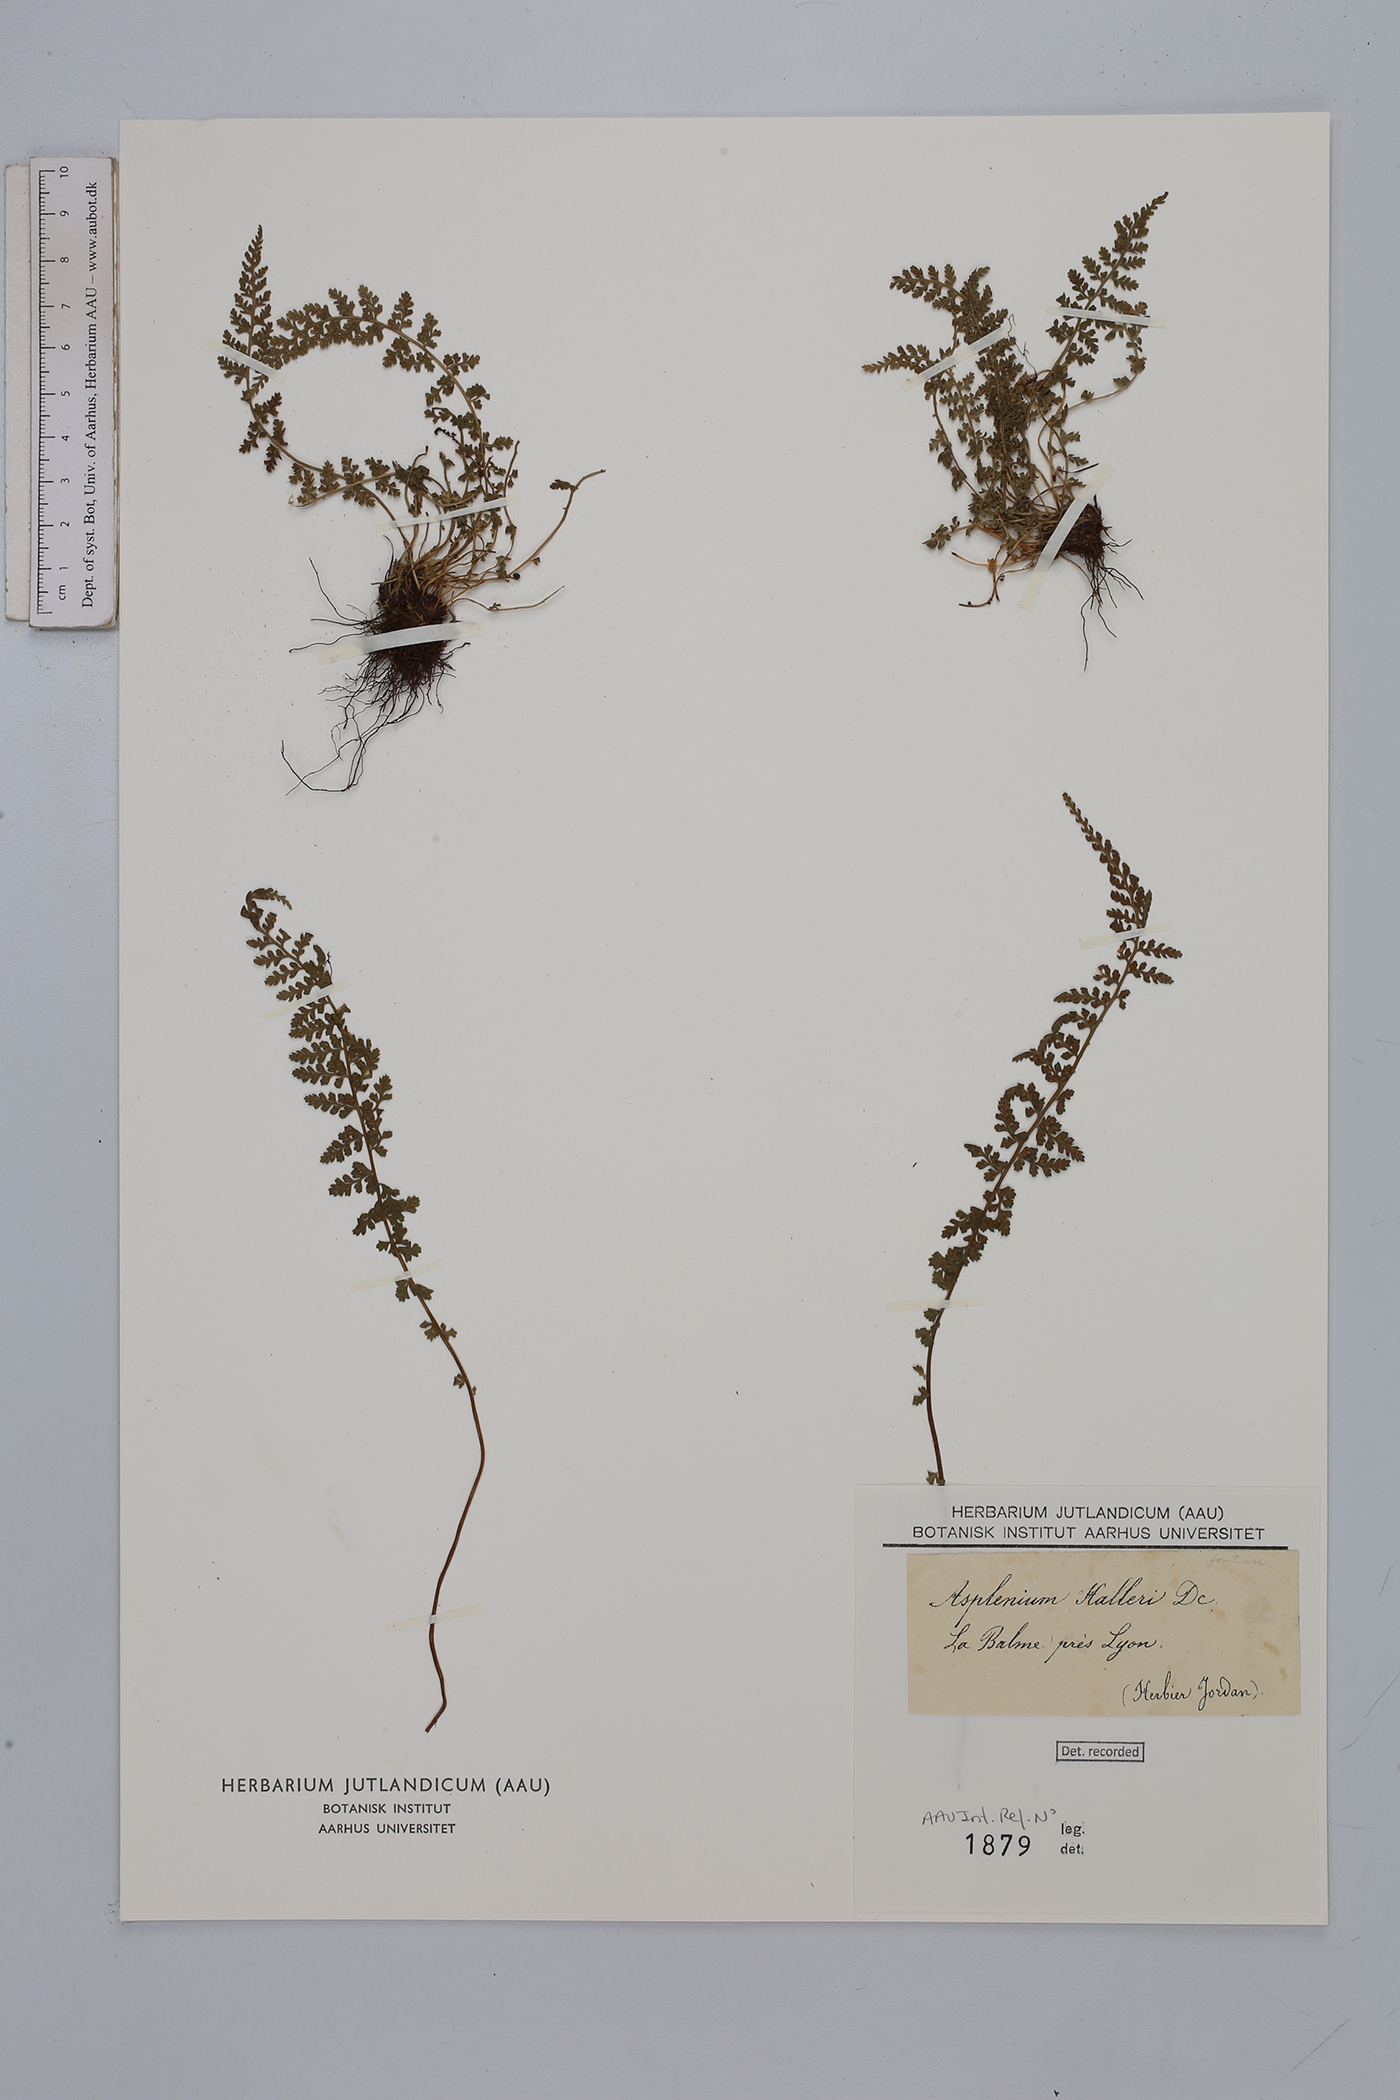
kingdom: Plantae
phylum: Tracheophyta
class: Polypodiopsida
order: Polypodiales
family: Aspleniaceae
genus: Asplenium
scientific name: Asplenium fontanum
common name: Fountain spleenwort
